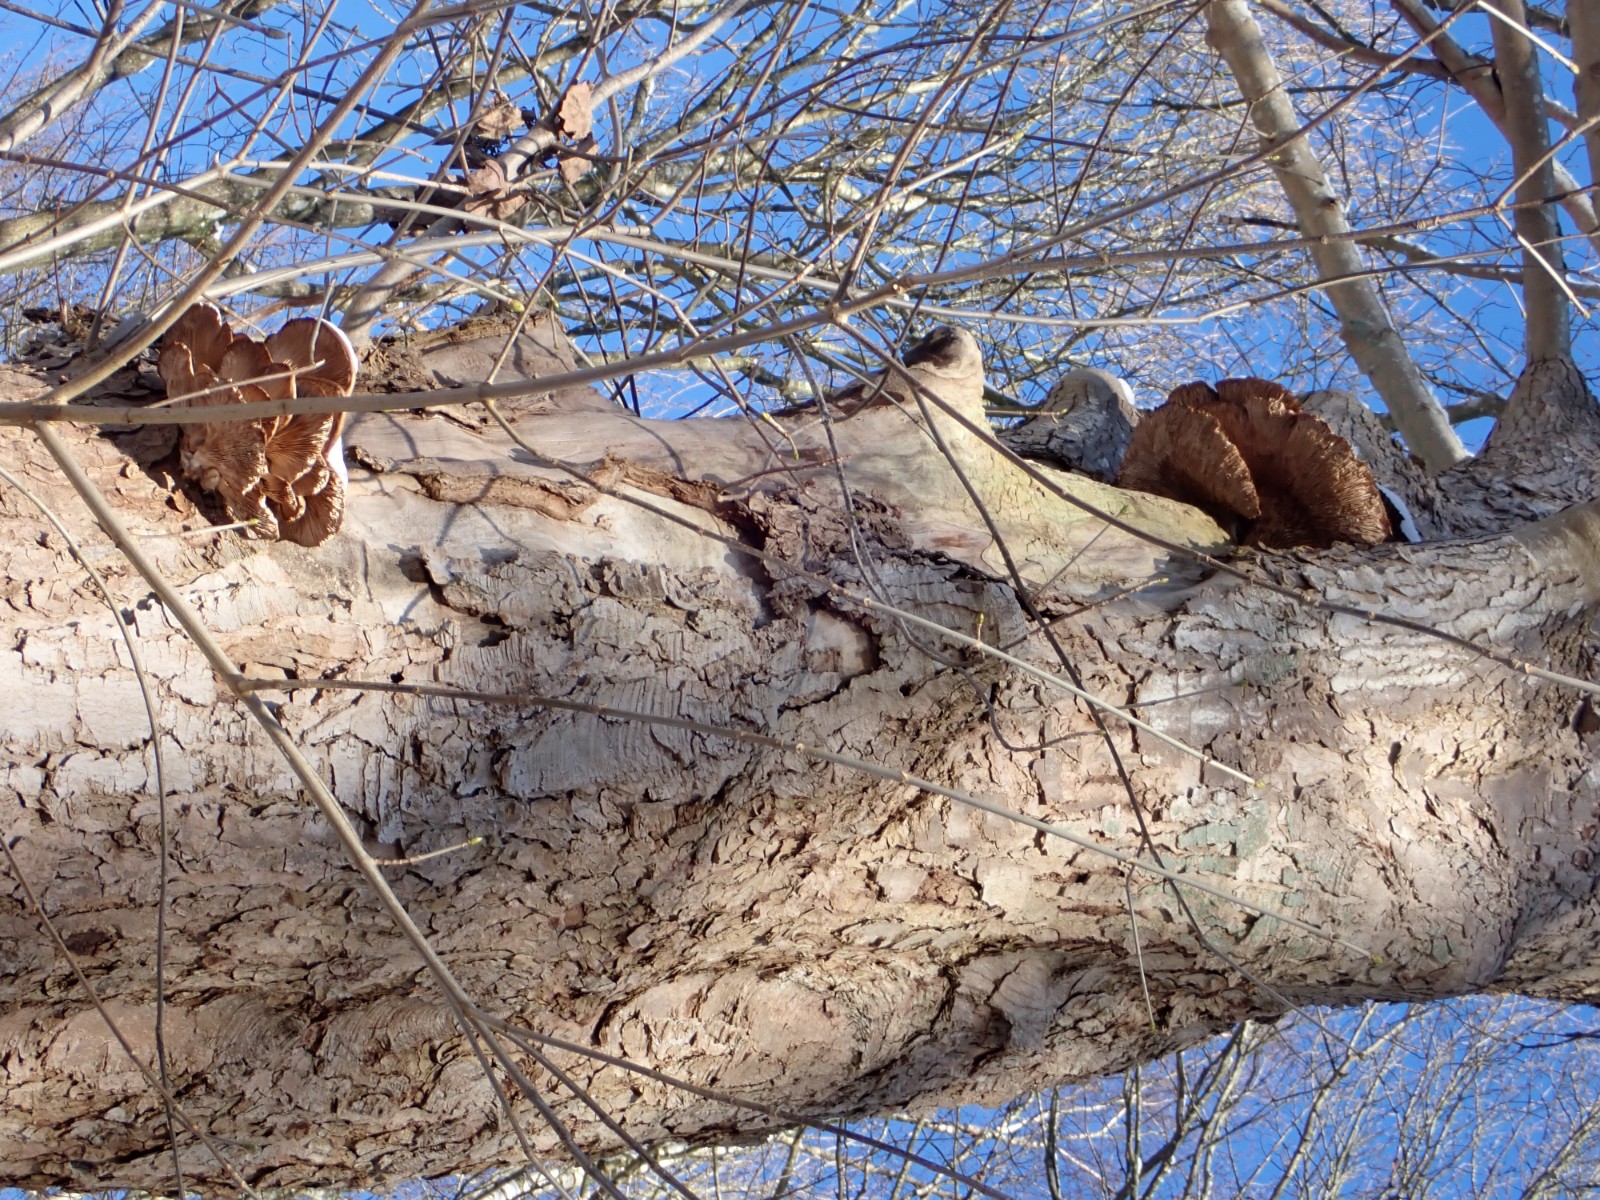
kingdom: Fungi
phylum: Basidiomycota
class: Agaricomycetes
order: Agaricales
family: Pleurotaceae
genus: Pleurotus
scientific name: Pleurotus ostreatus
